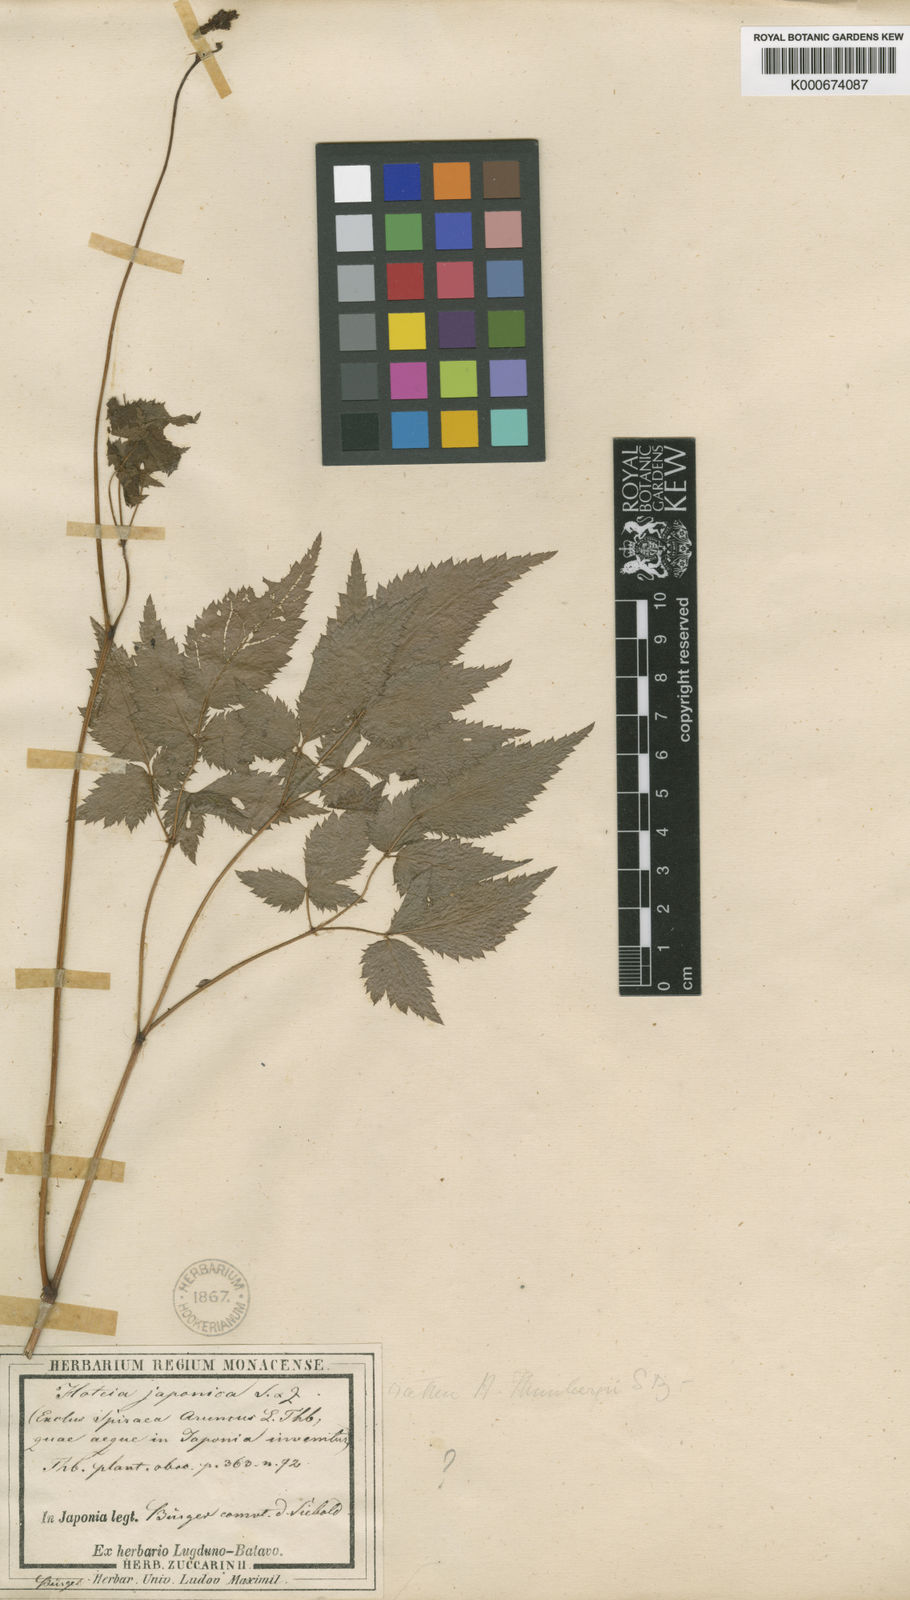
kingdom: Plantae
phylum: Tracheophyta
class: Magnoliopsida
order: Saxifragales
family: Saxifragaceae
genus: Astilbe
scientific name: Astilbe thunbergii
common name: Thunberg's astilbe
